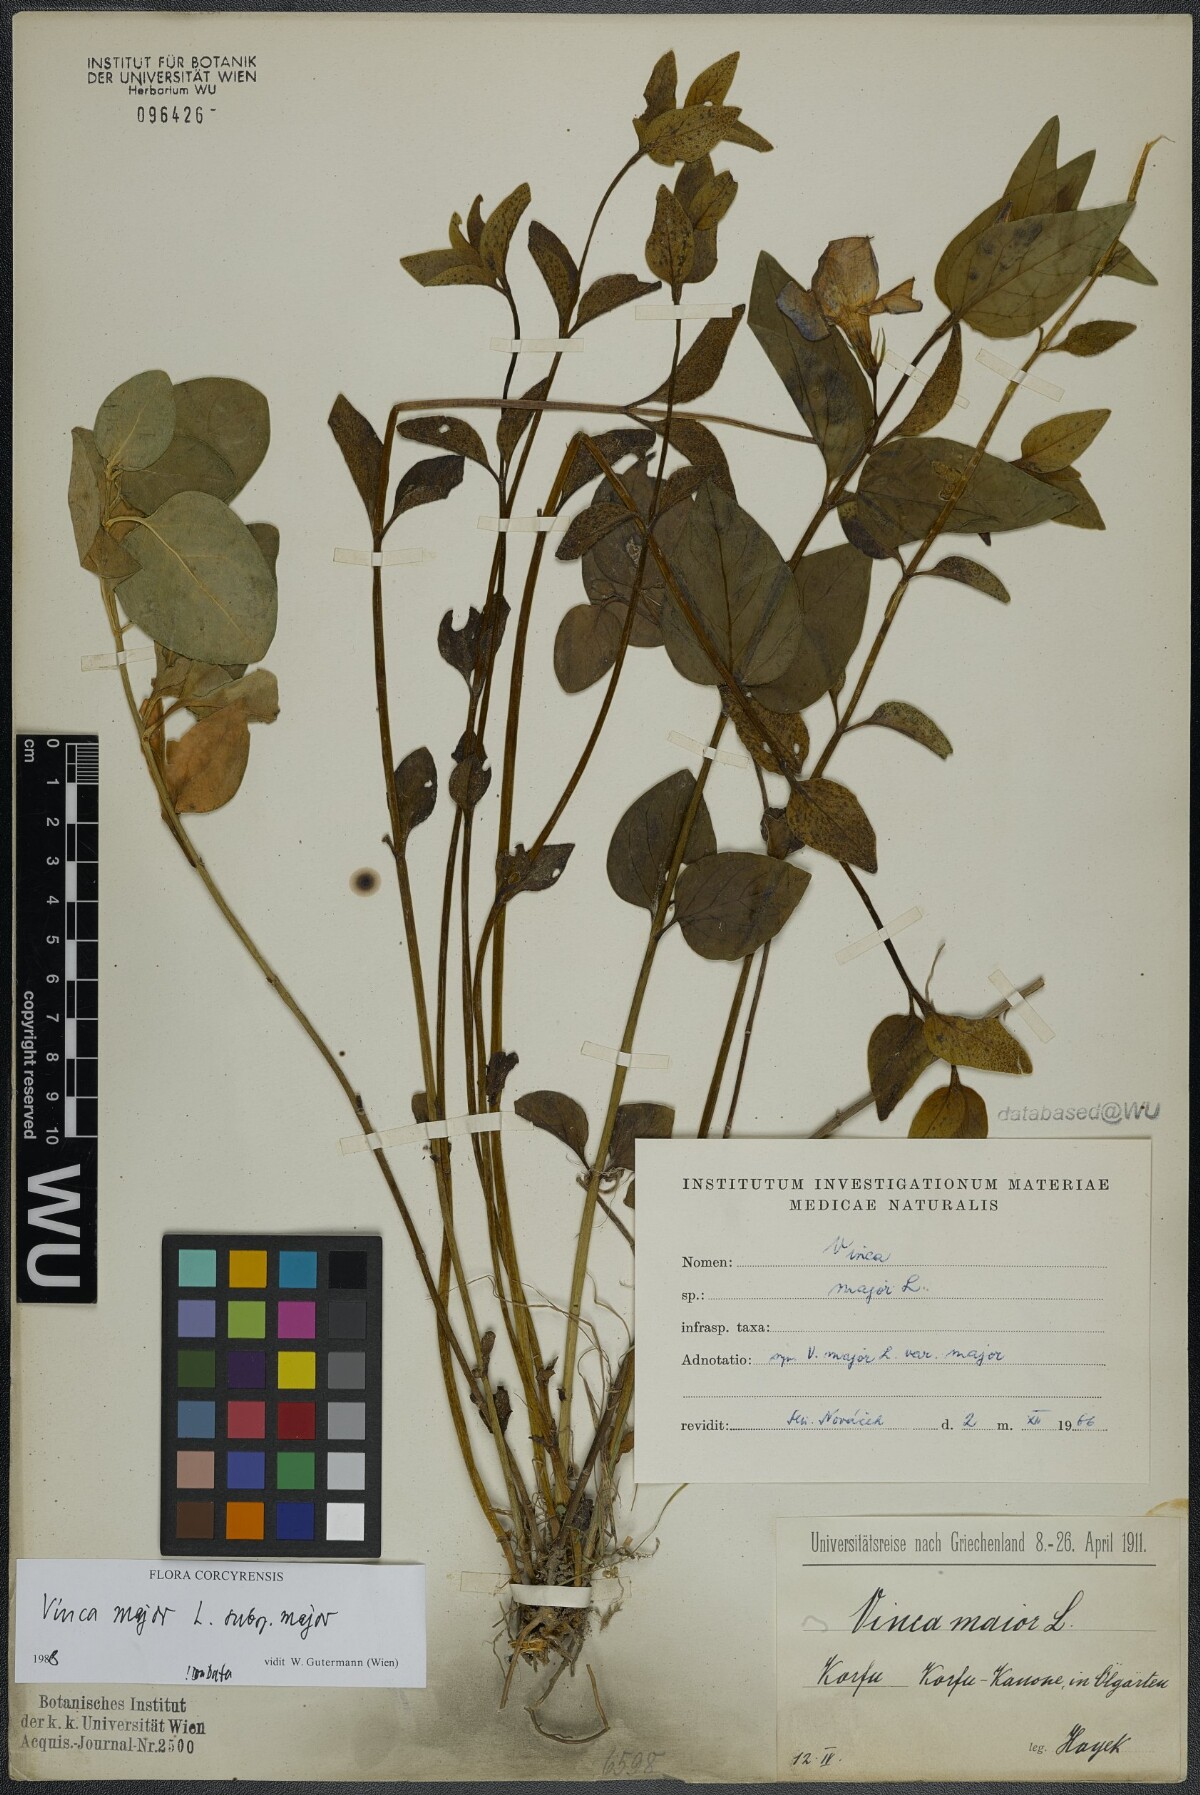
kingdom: Plantae
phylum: Tracheophyta
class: Magnoliopsida
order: Gentianales
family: Apocynaceae
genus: Vinca
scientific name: Vinca major
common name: Greater periwinkle
